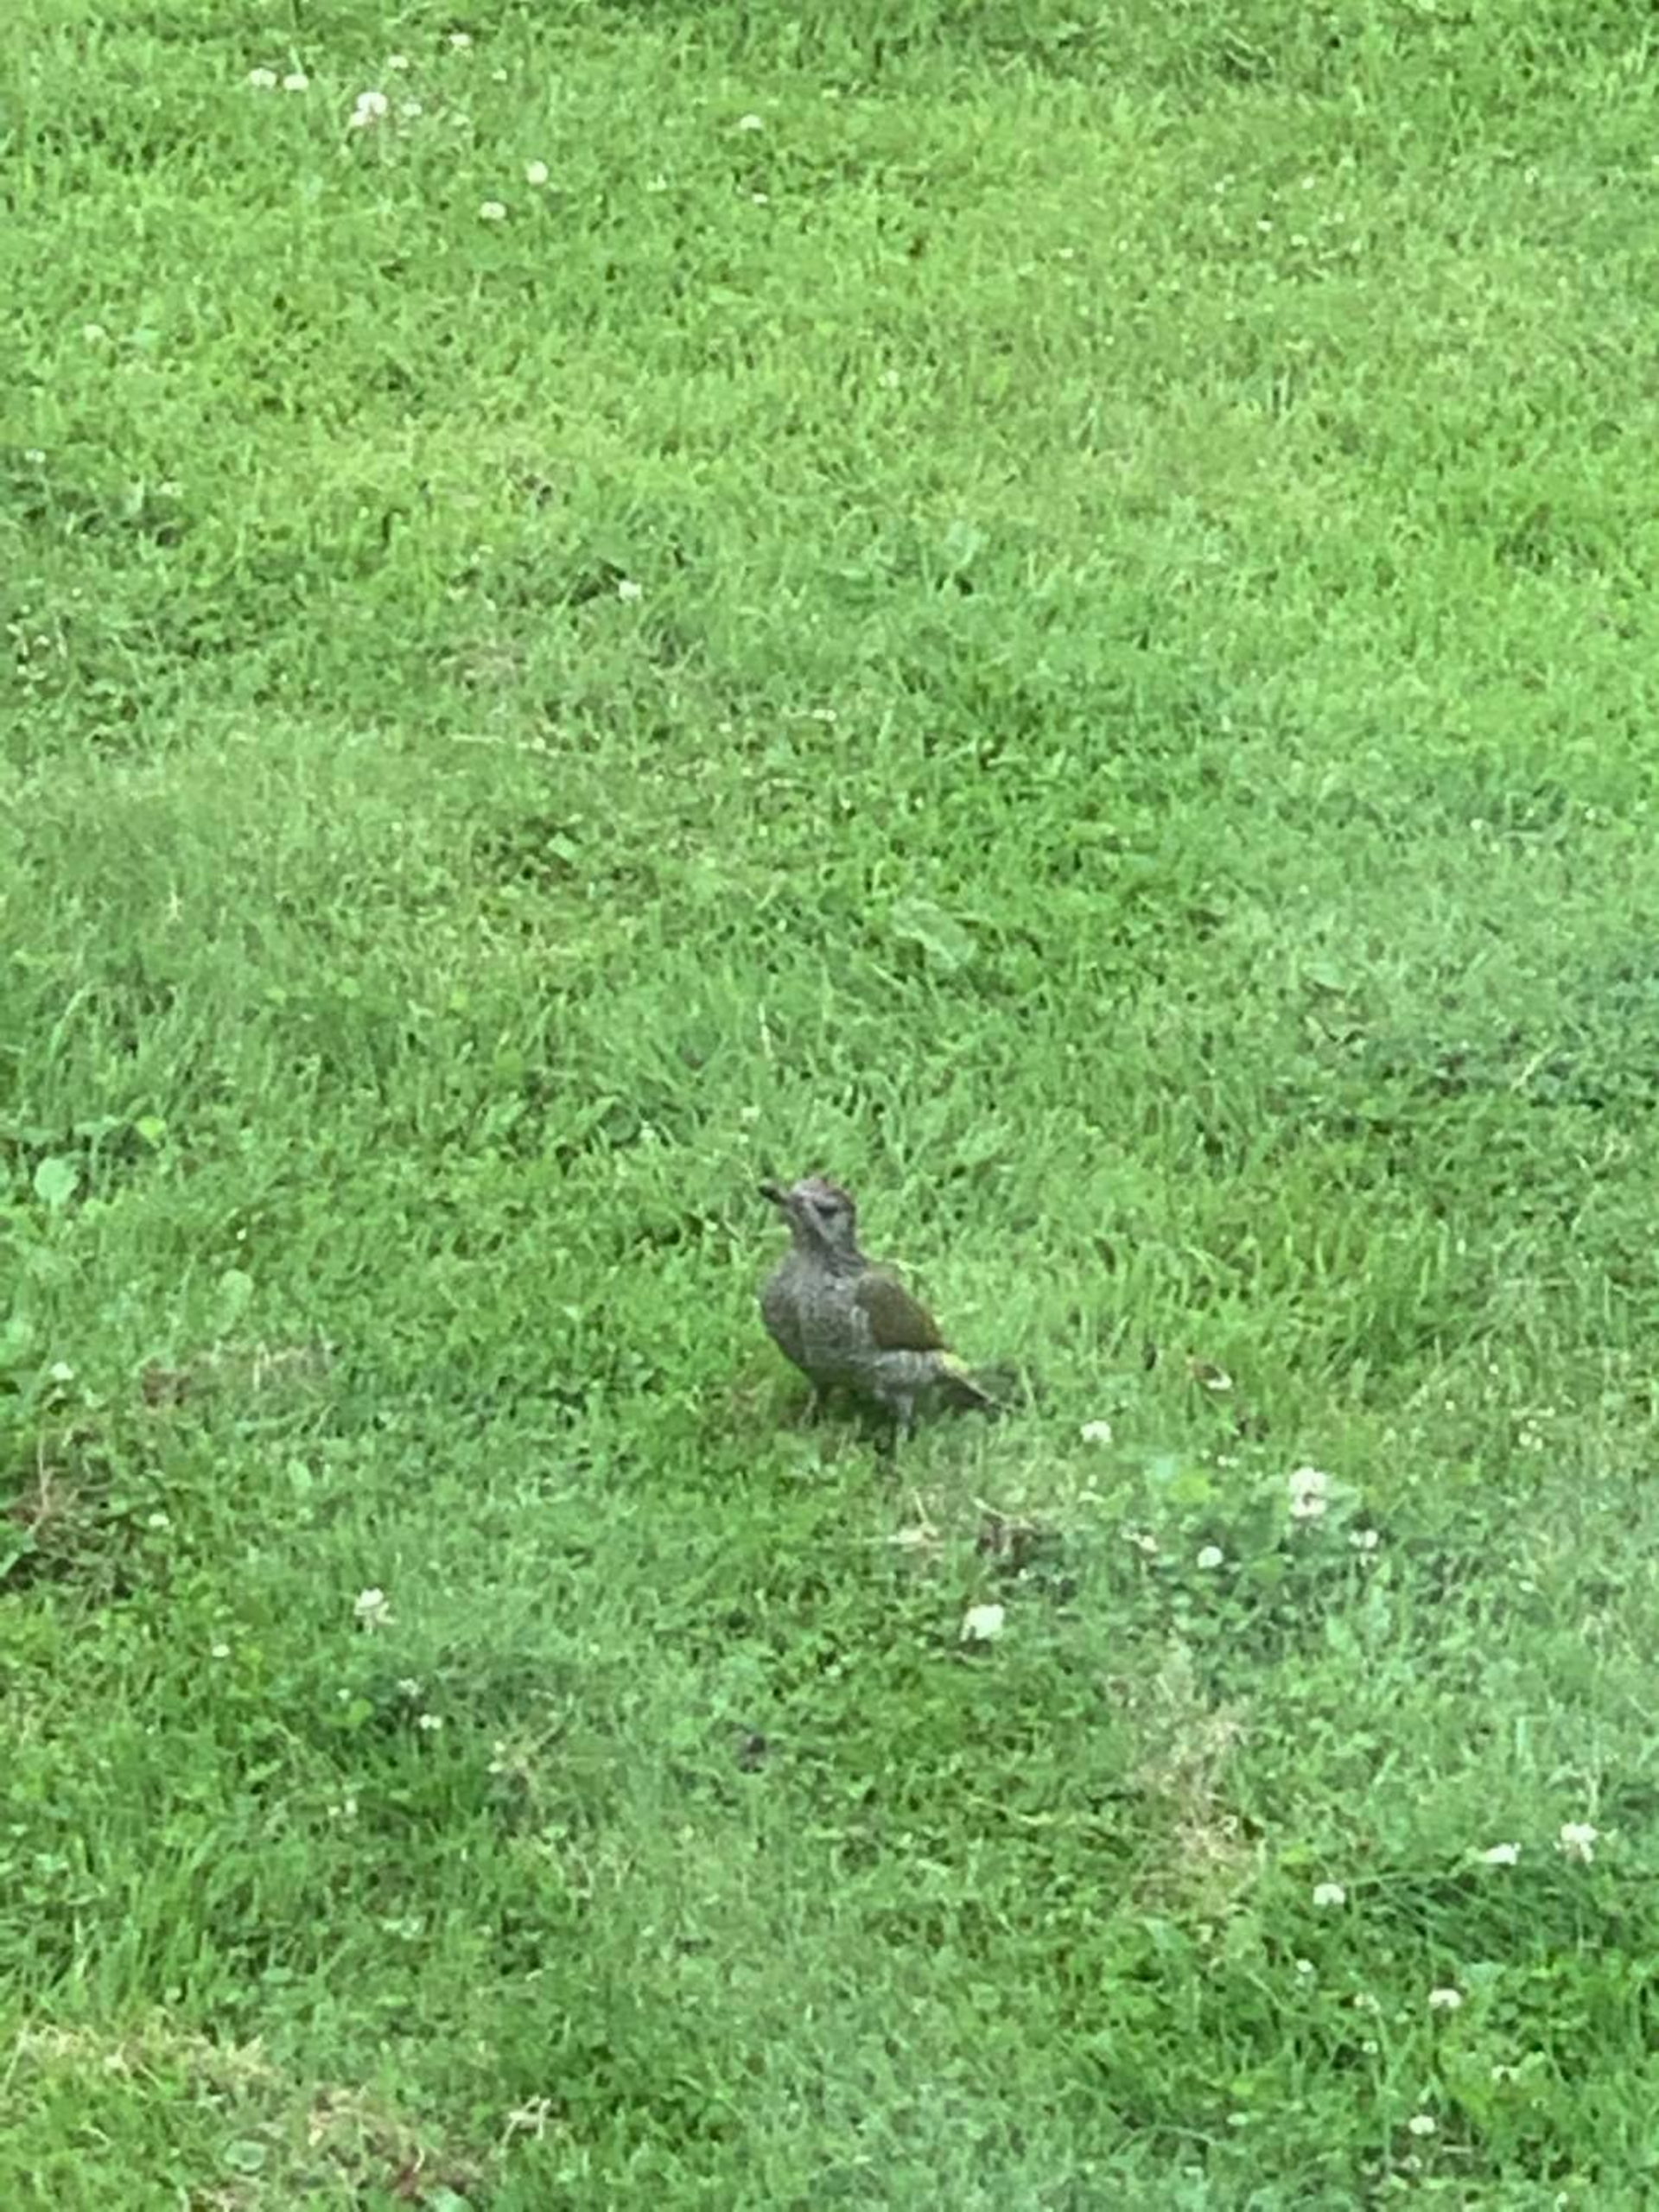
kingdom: Animalia
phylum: Chordata
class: Aves
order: Piciformes
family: Picidae
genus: Picus
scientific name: Picus viridis
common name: Grønspætte
